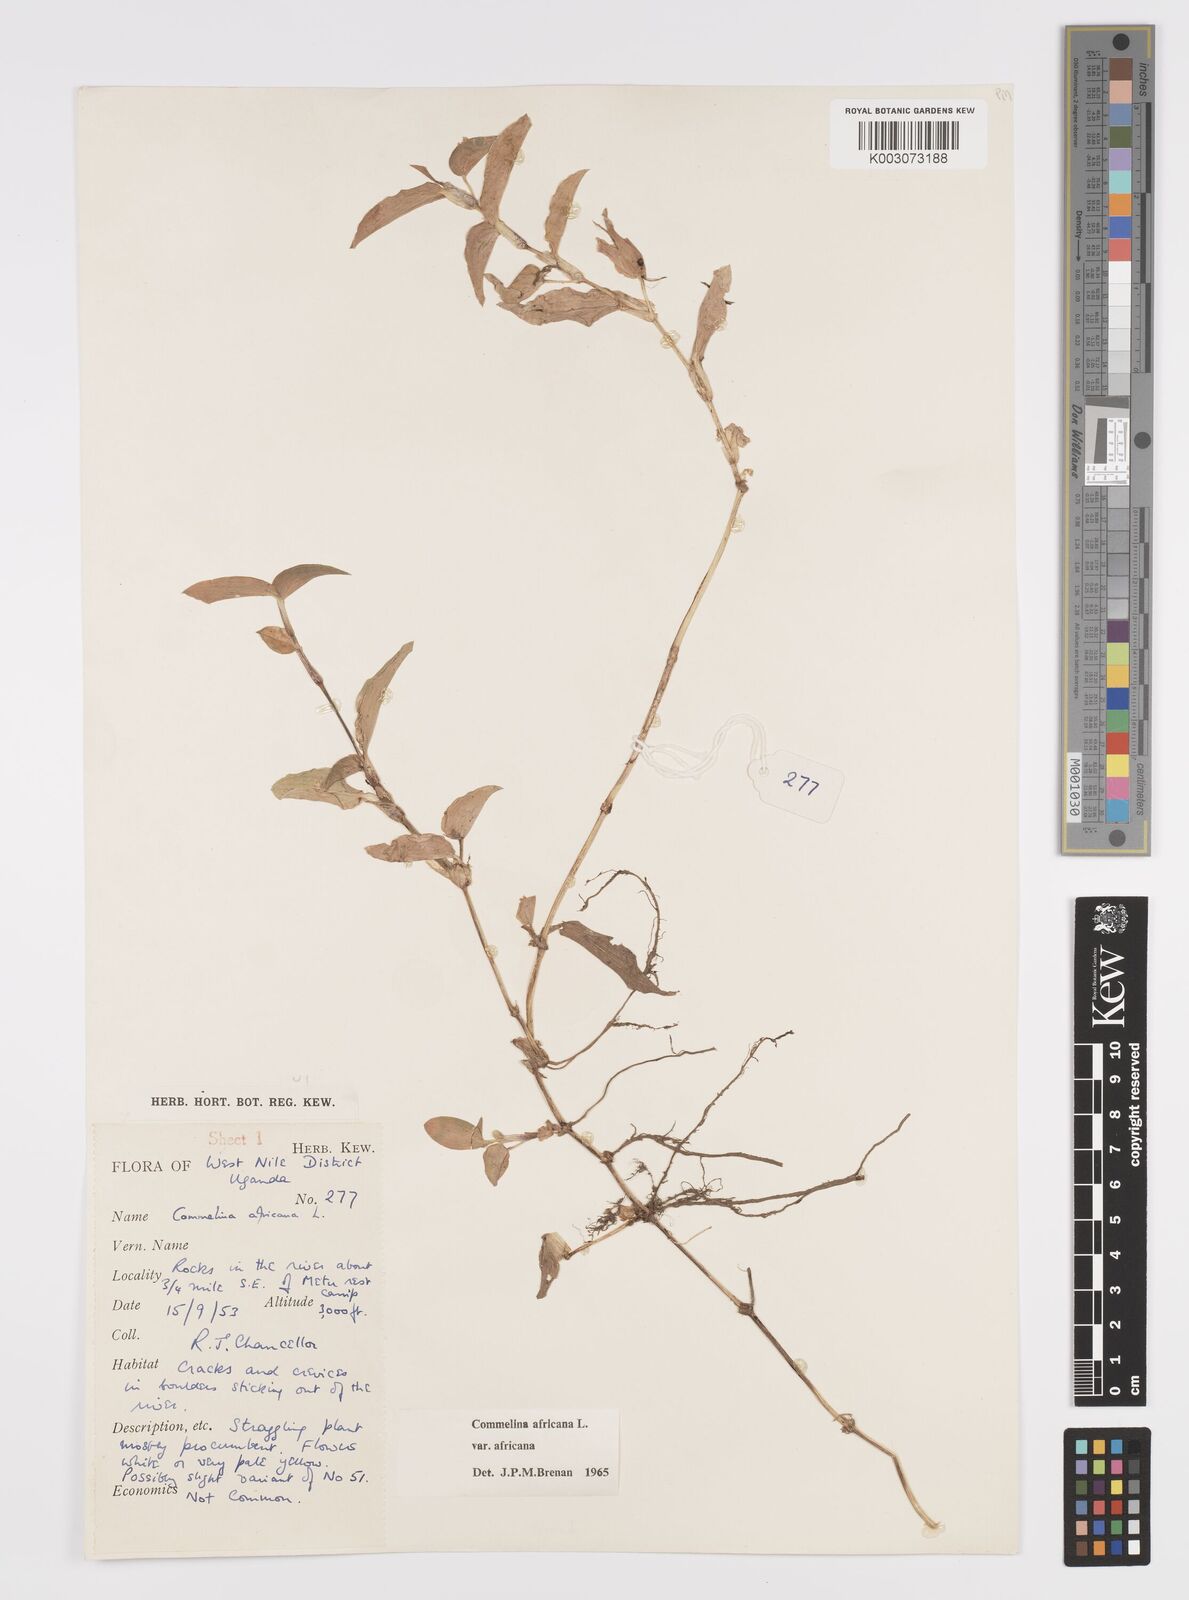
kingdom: Plantae
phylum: Tracheophyta
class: Liliopsida
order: Commelinales
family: Commelinaceae
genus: Commelina
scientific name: Commelina africana
